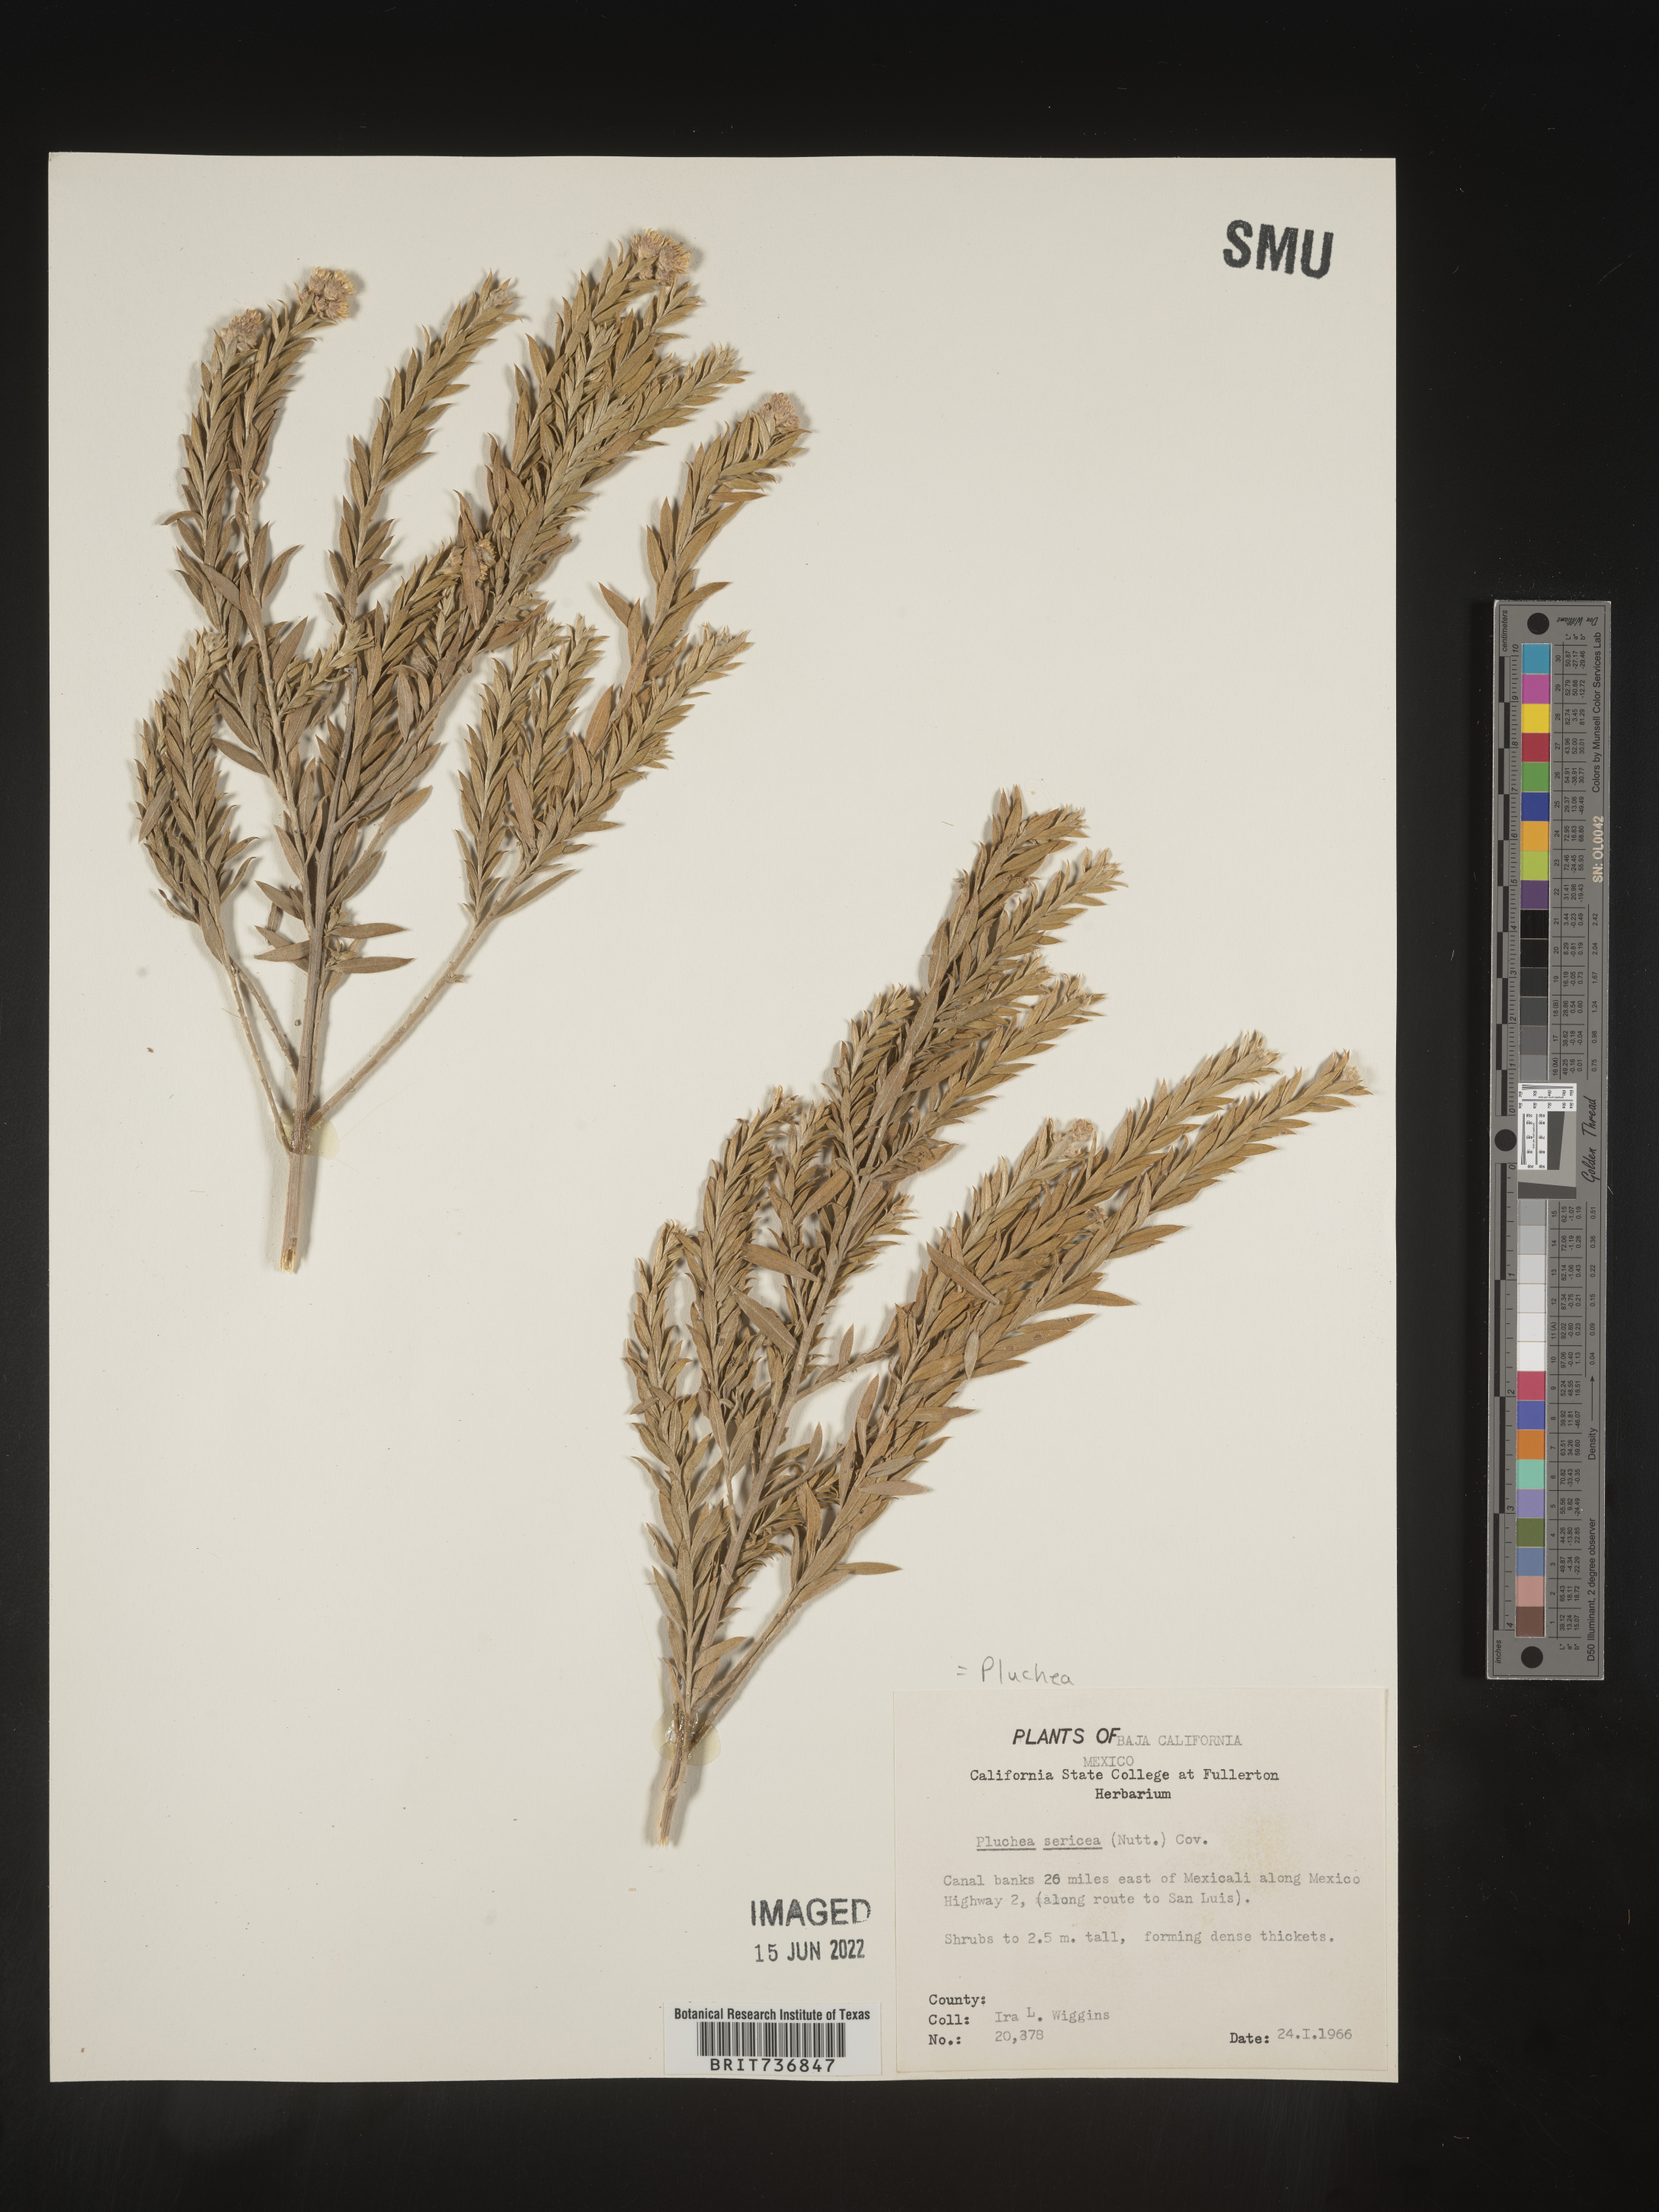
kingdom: Plantae
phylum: Tracheophyta
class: Magnoliopsida
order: Asterales
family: Asteraceae
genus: Pluchea
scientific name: Pluchea
